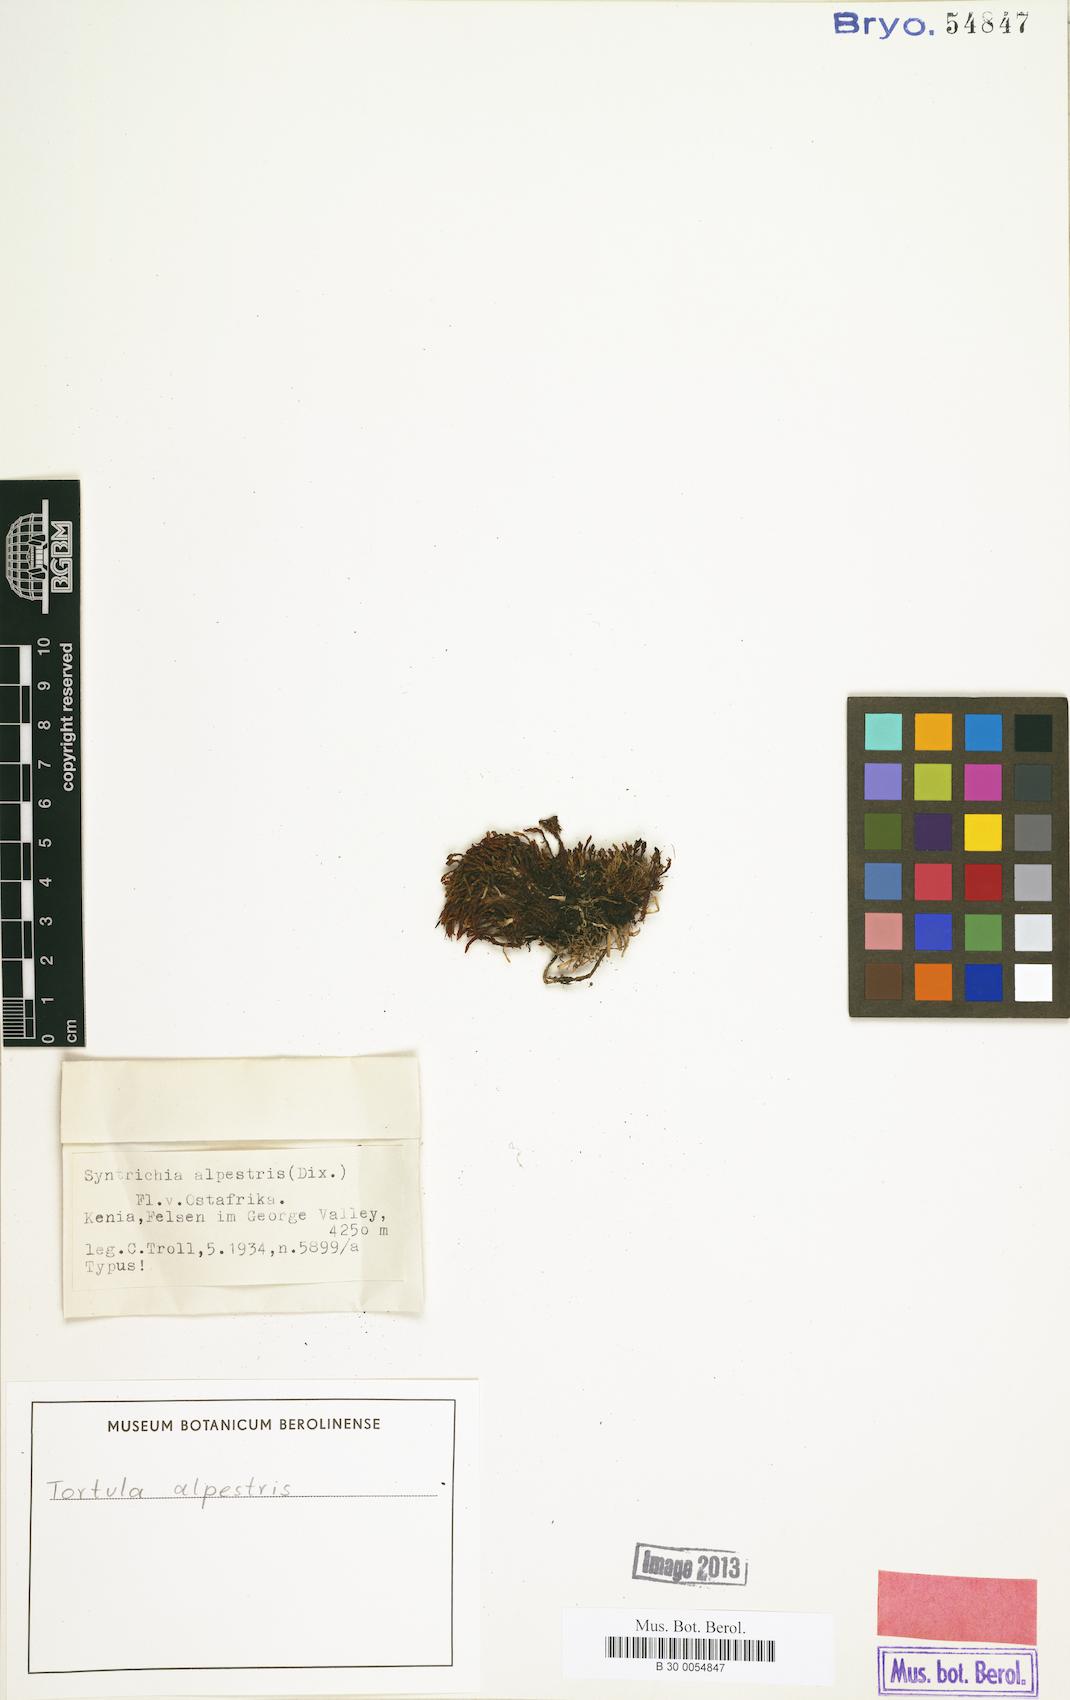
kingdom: Plantae
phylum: Bryophyta
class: Bryopsida
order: Pottiales
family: Pottiaceae
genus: Syntrichia
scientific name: Syntrichia cavallii
